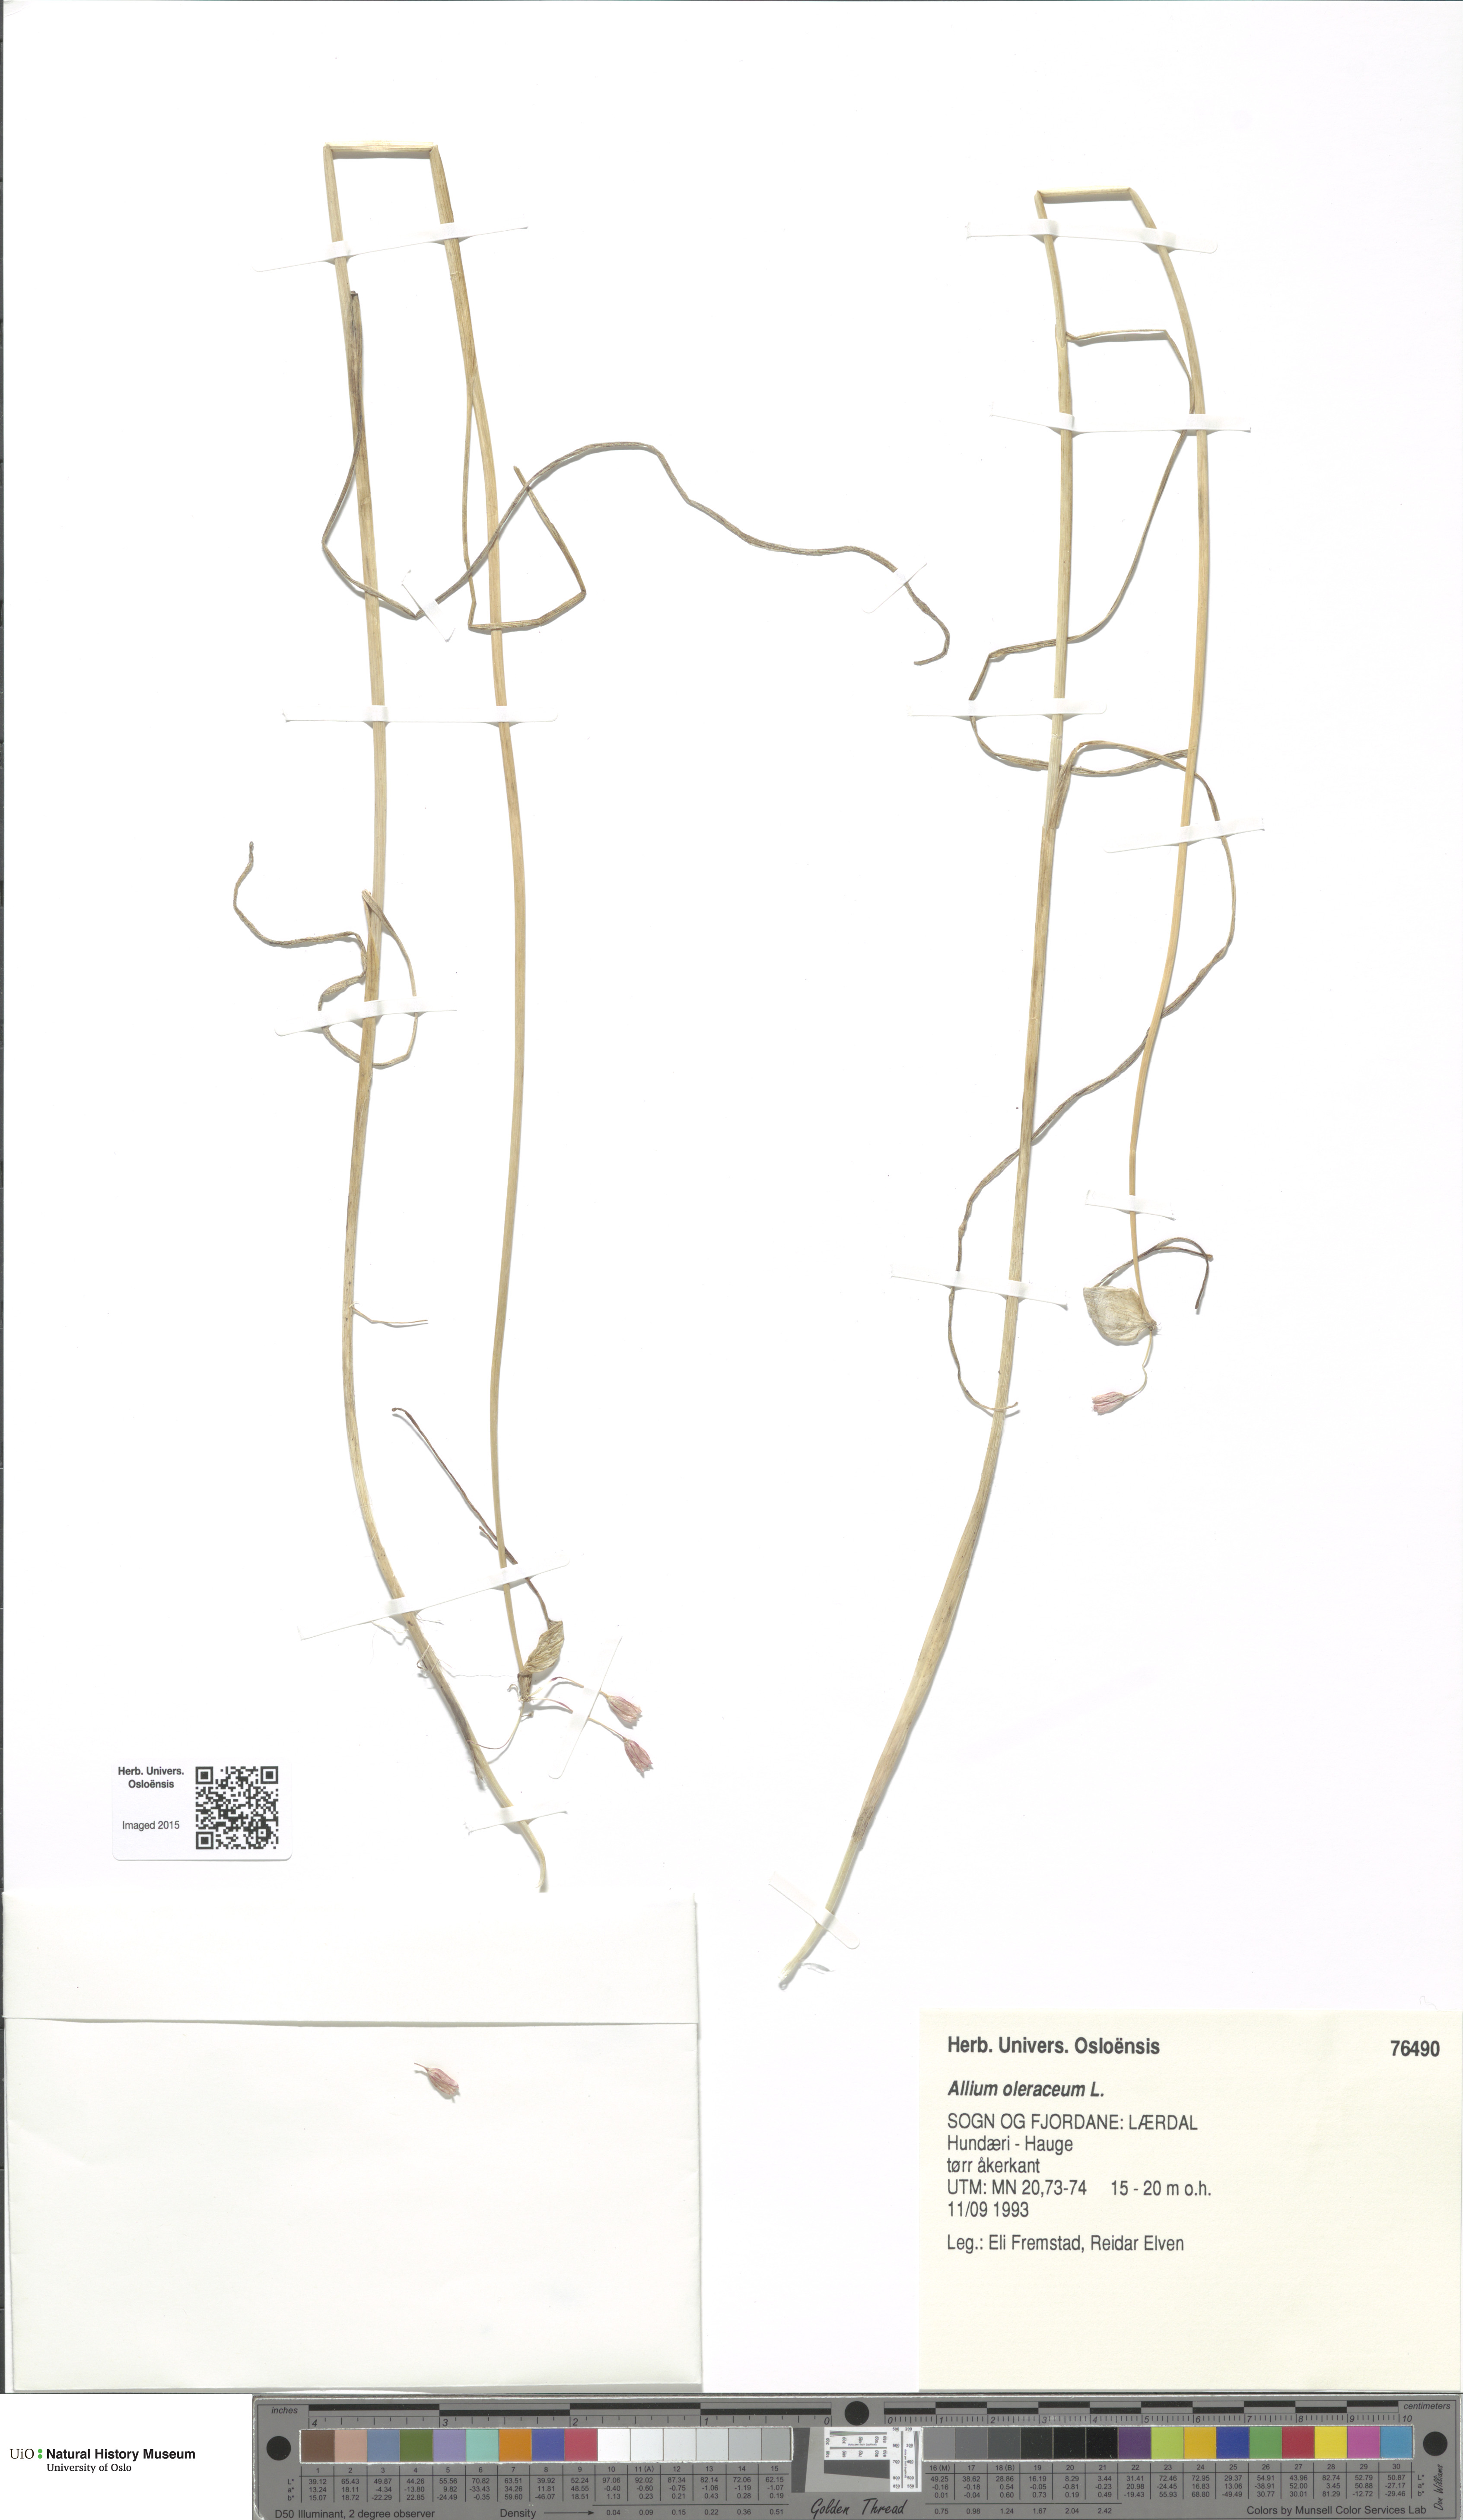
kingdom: Plantae
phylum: Tracheophyta
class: Liliopsida
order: Asparagales
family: Amaryllidaceae
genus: Allium
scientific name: Allium oleraceum
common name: Field garlic
